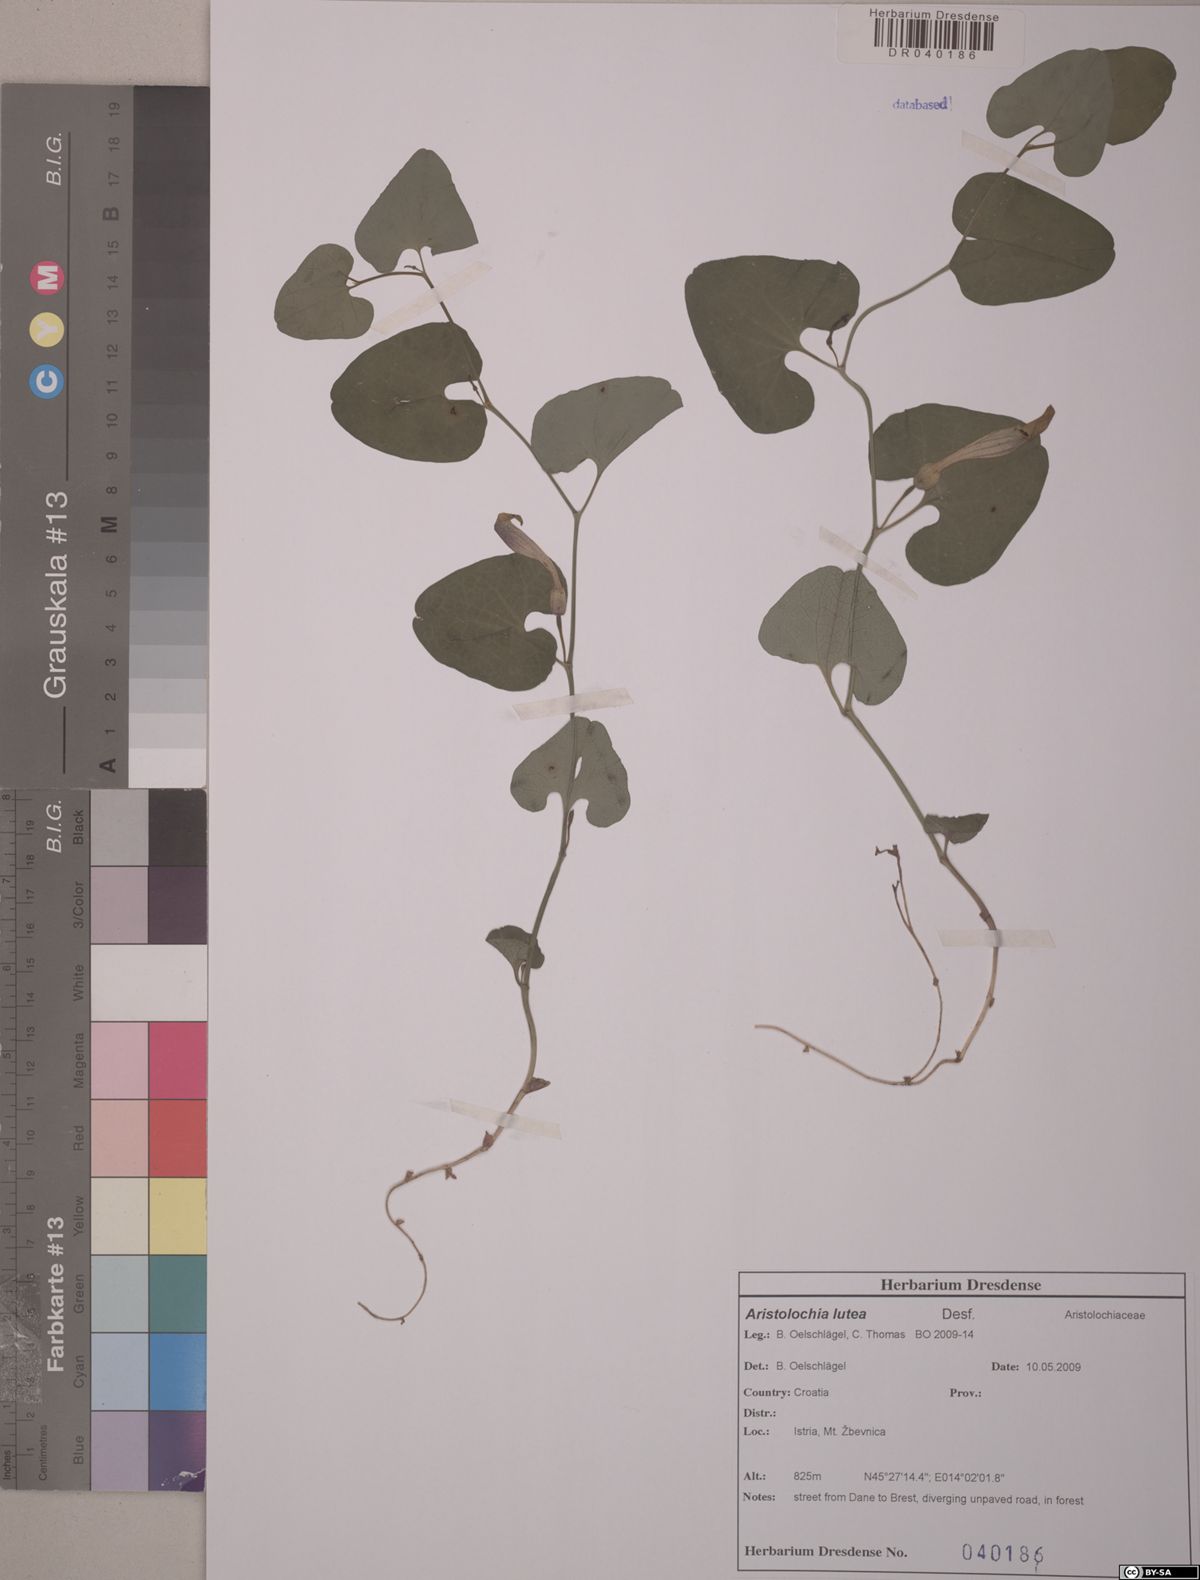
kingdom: Plantae
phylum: Tracheophyta
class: Magnoliopsida
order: Piperales
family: Aristolochiaceae
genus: Aristolochia
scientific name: Aristolochia lutea
